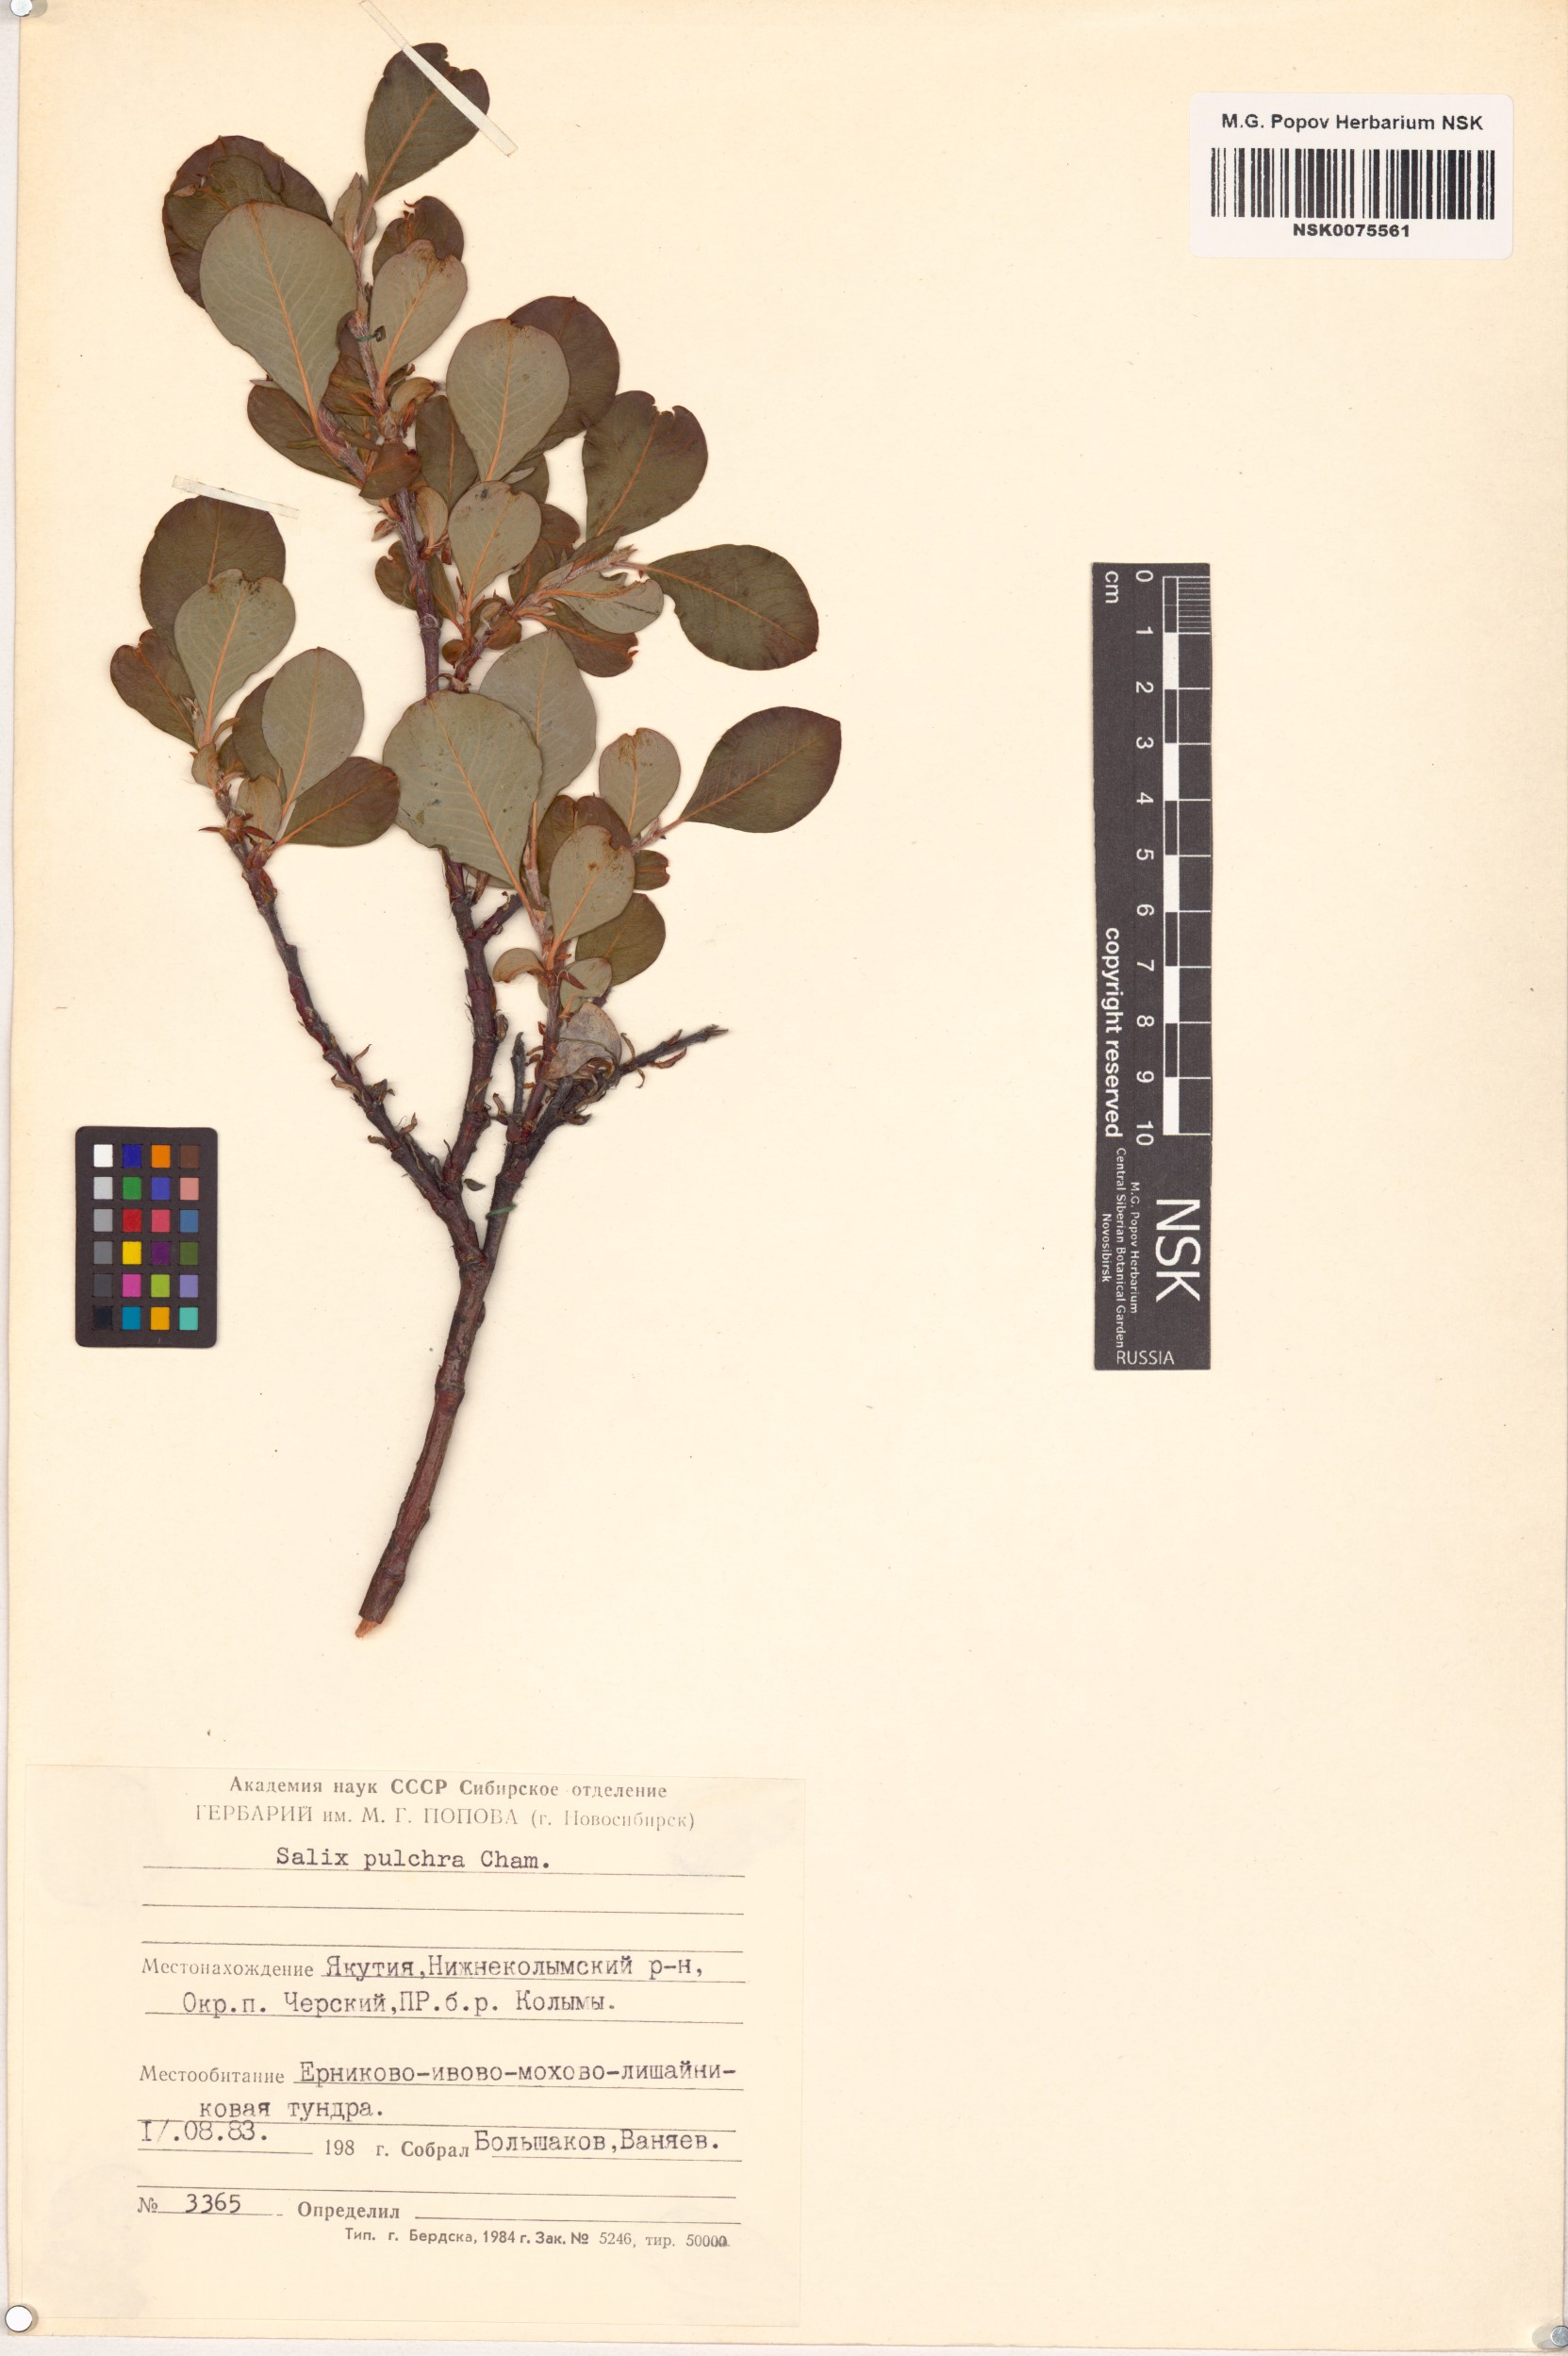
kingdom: Plantae
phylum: Tracheophyta
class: Magnoliopsida
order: Malpighiales
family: Salicaceae
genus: Salix
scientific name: Salix pulchra
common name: Diamond-leaved willow
